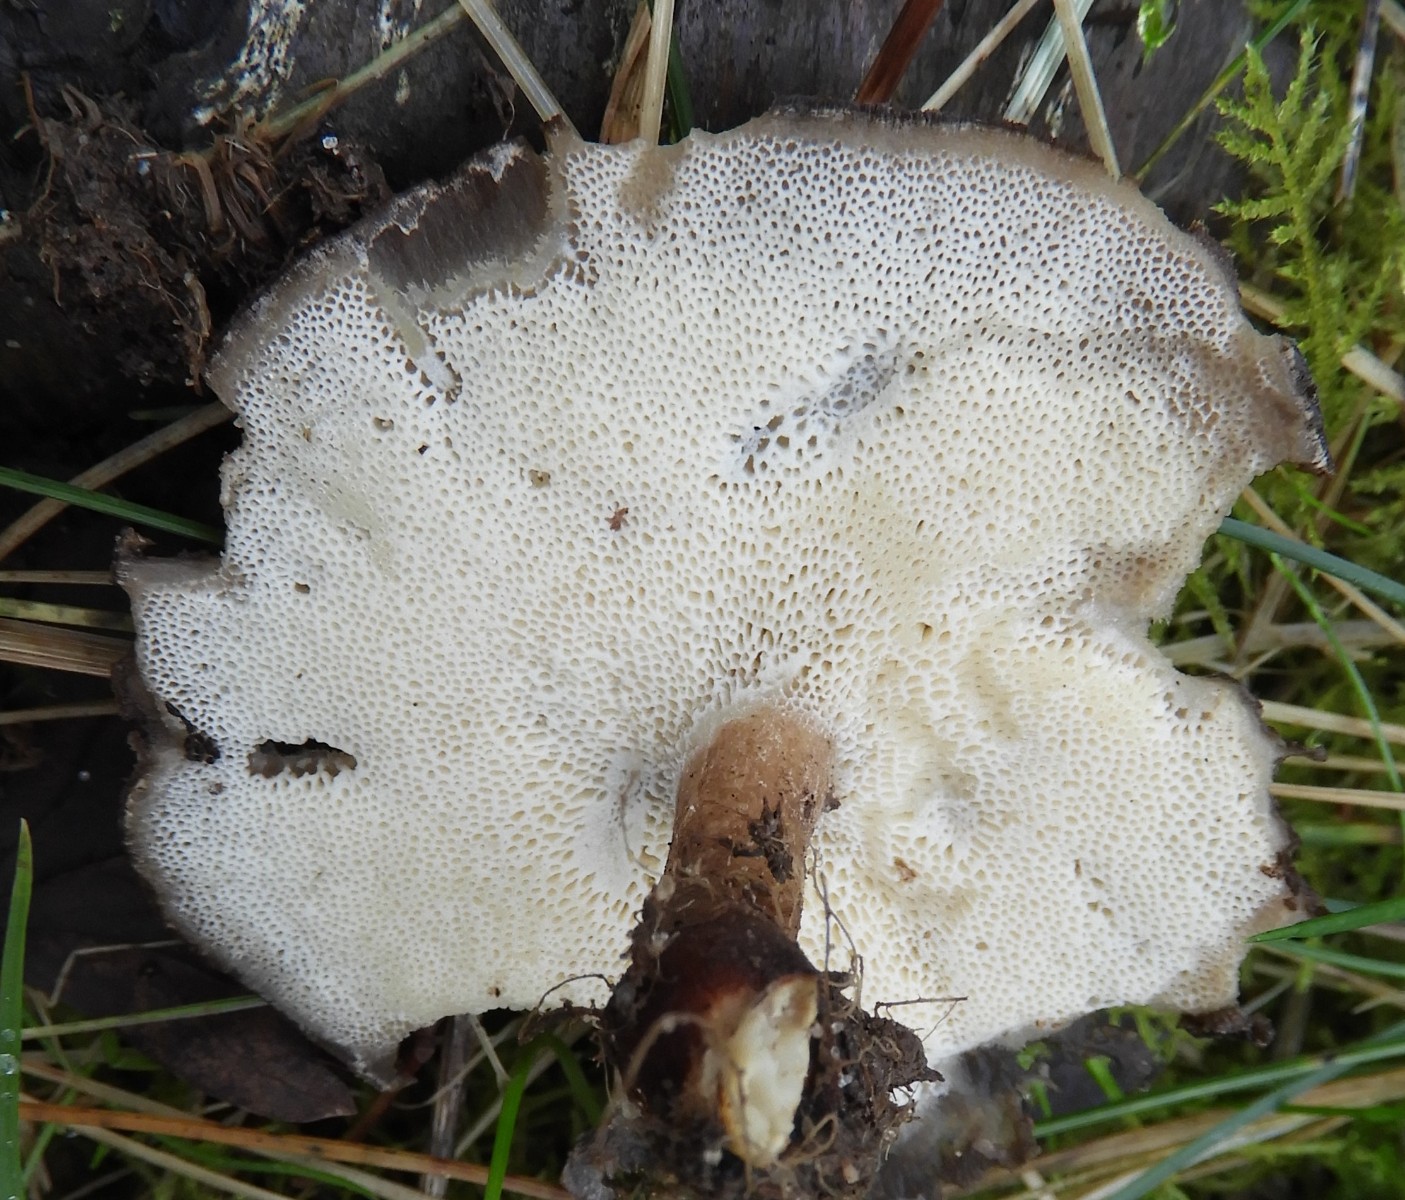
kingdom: Fungi
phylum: Basidiomycota
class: Agaricomycetes
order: Polyporales
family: Polyporaceae
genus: Lentinus
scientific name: Lentinus brumalis
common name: vinter-stilkporesvamp
